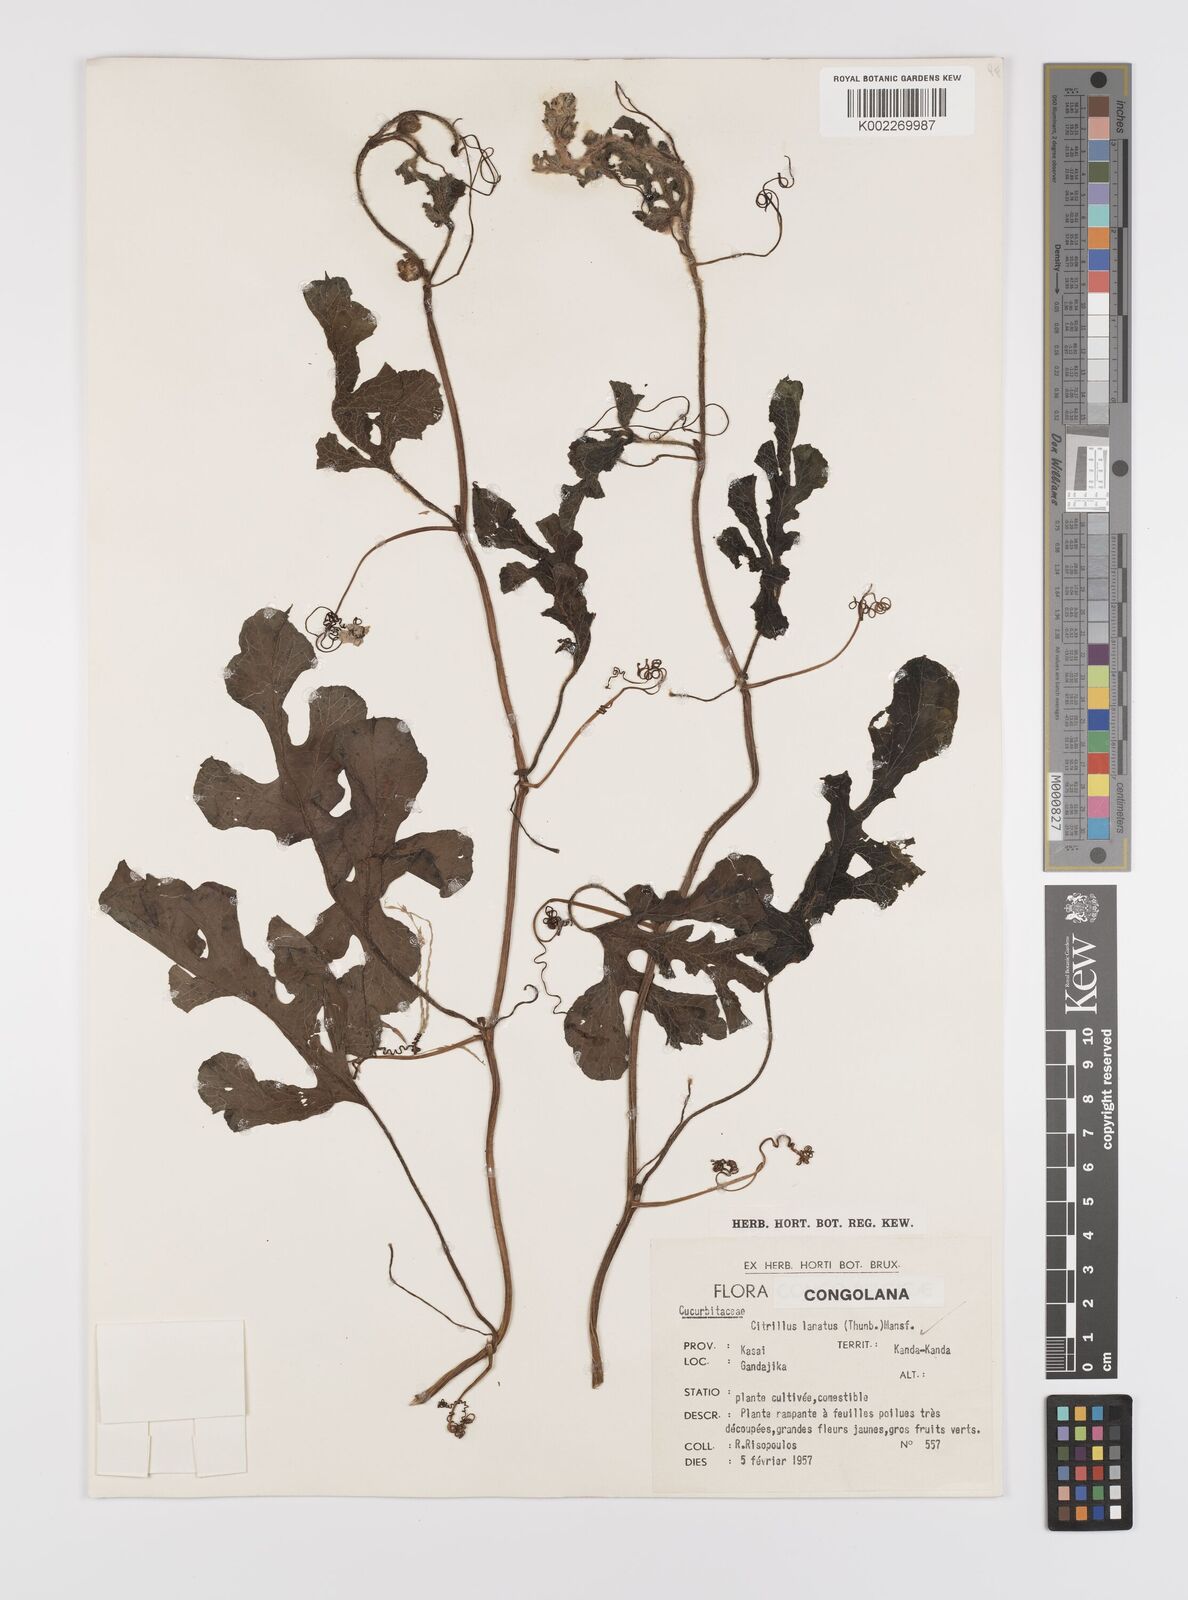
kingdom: Plantae
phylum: Tracheophyta
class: Magnoliopsida
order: Cucurbitales
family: Cucurbitaceae
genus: Citrullus
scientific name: Citrullus lanatus
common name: Watermelon
